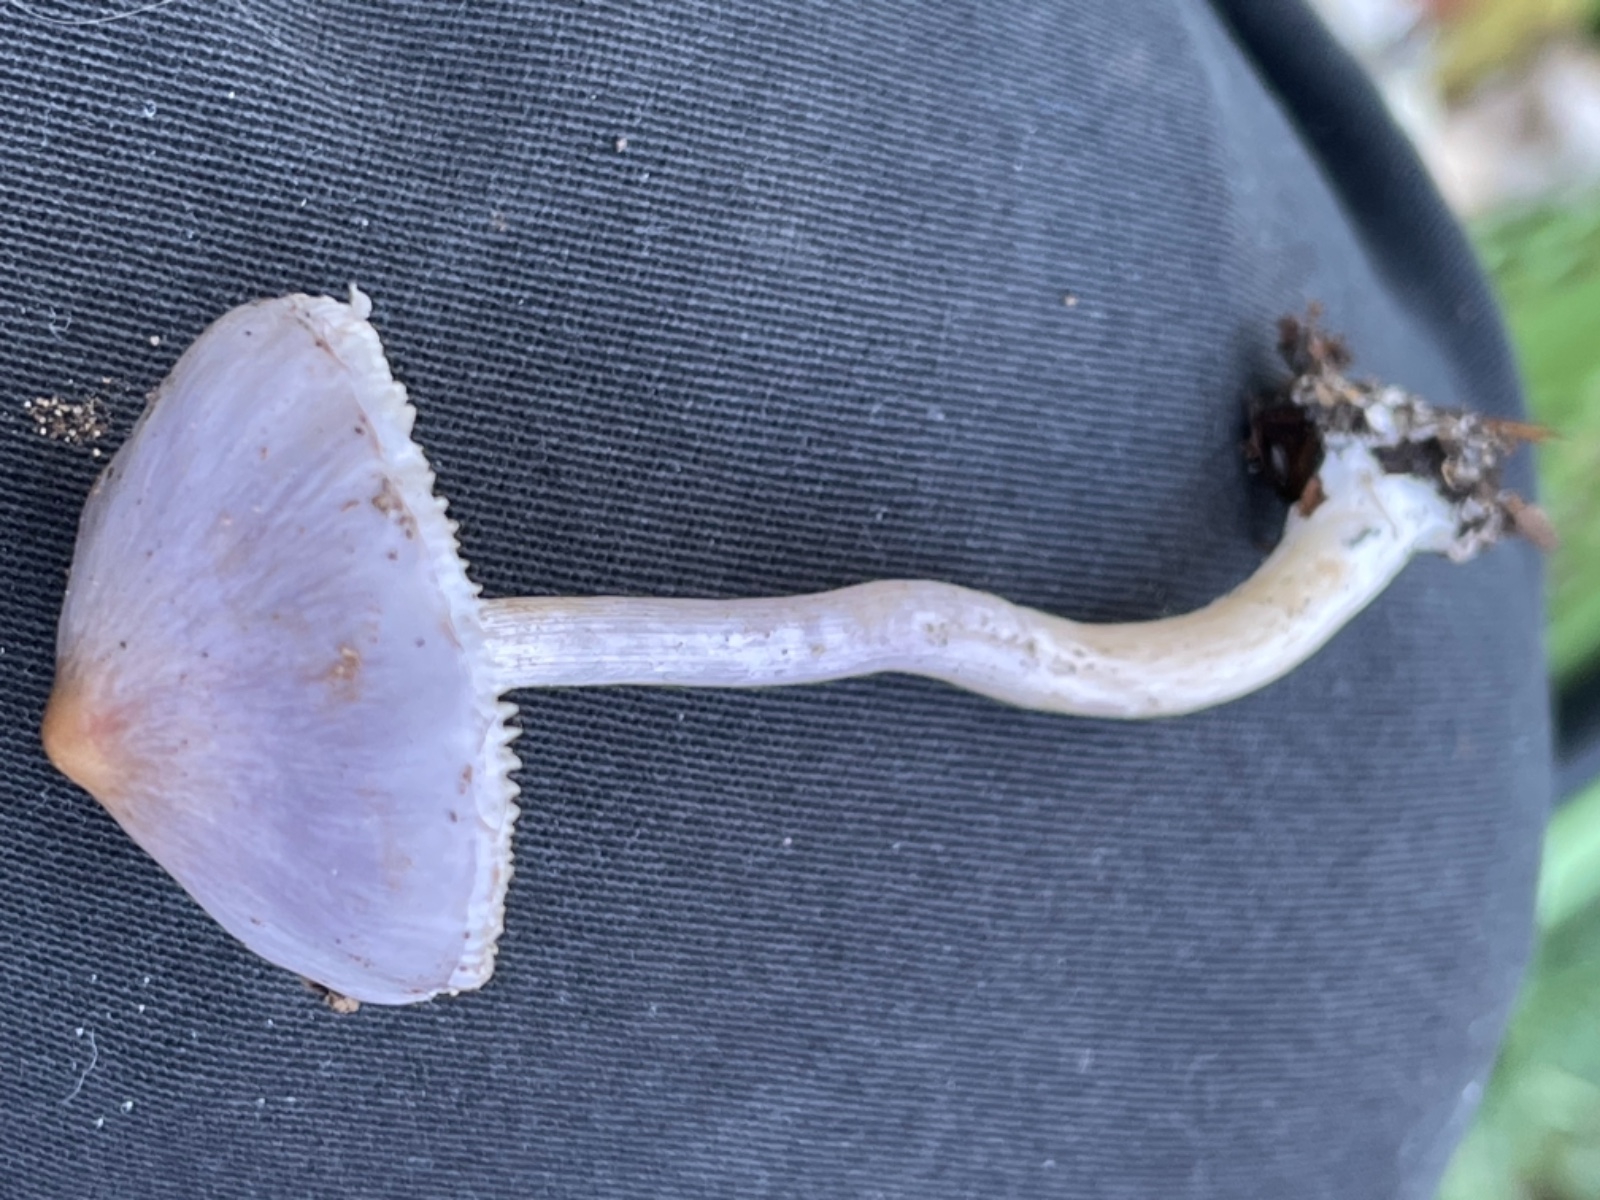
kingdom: Fungi
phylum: Basidiomycota
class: Agaricomycetes
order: Agaricales
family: Inocybaceae
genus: Inocybe
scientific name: Inocybe geophylla
